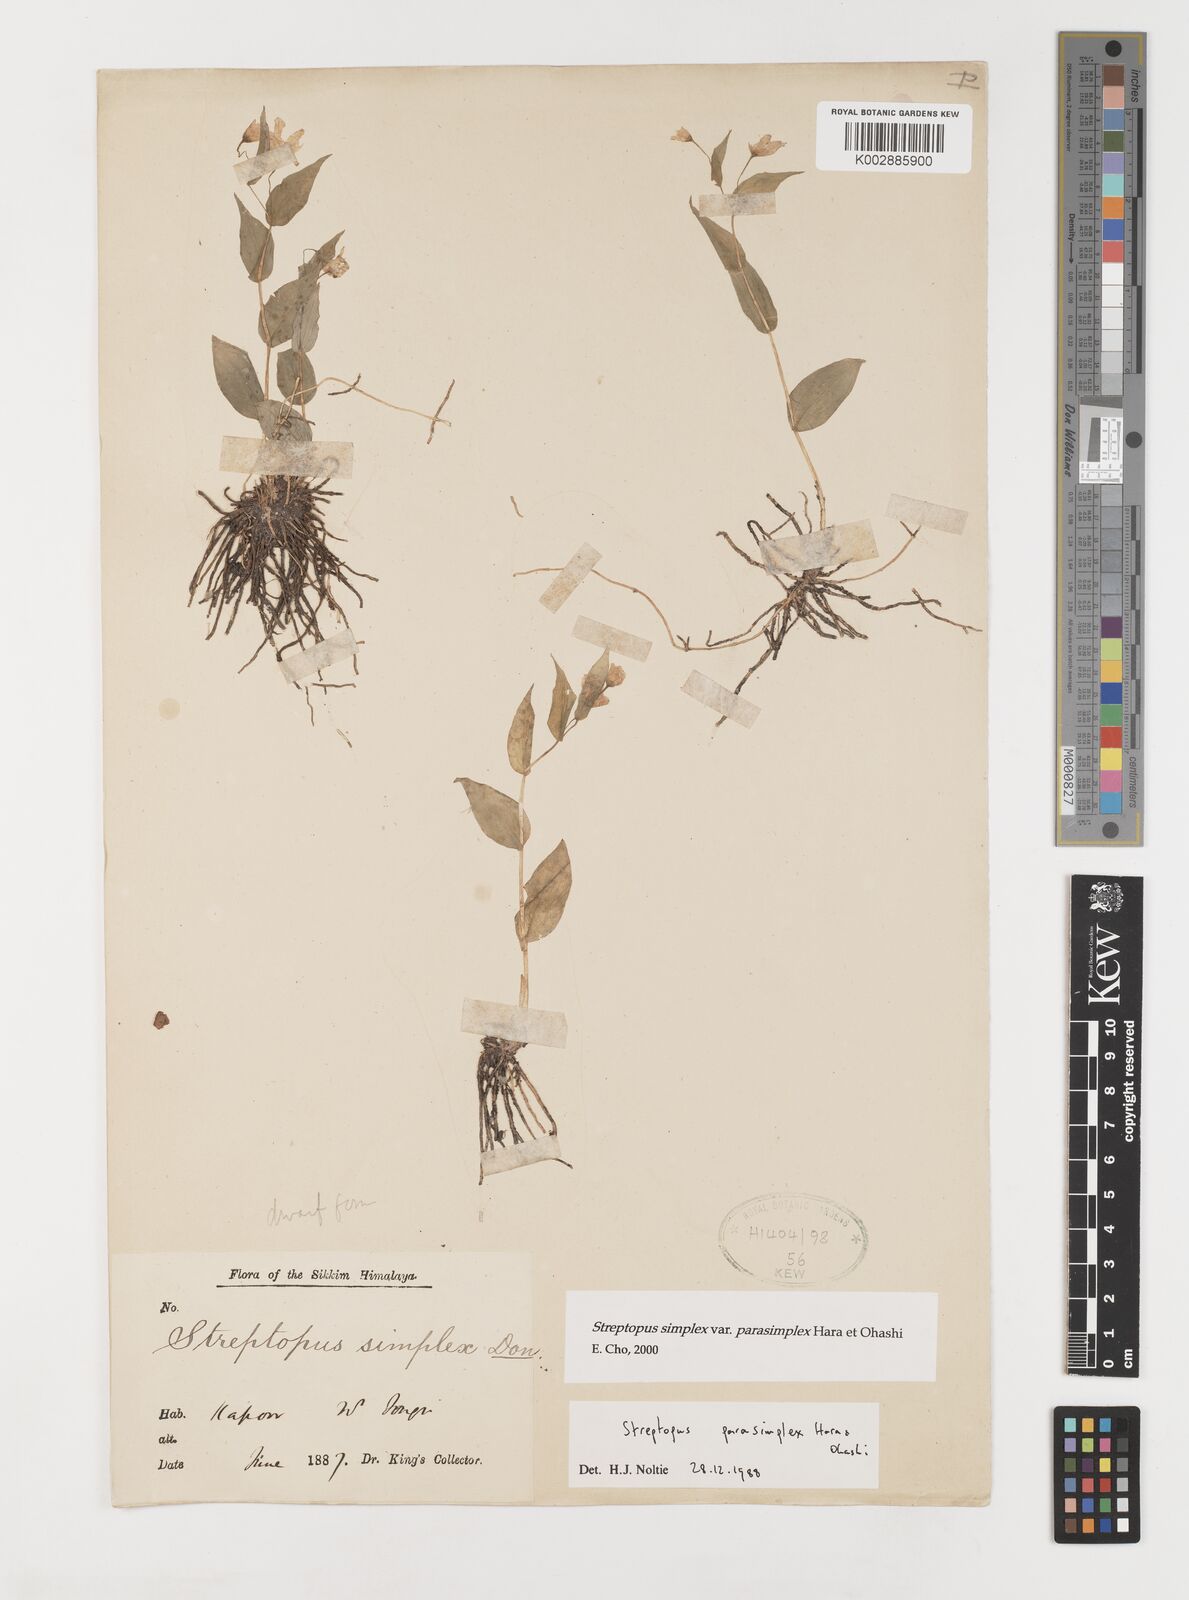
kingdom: Plantae
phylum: Tracheophyta
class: Liliopsida
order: Liliales
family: Liliaceae
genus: Streptopus
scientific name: Streptopus simplex
